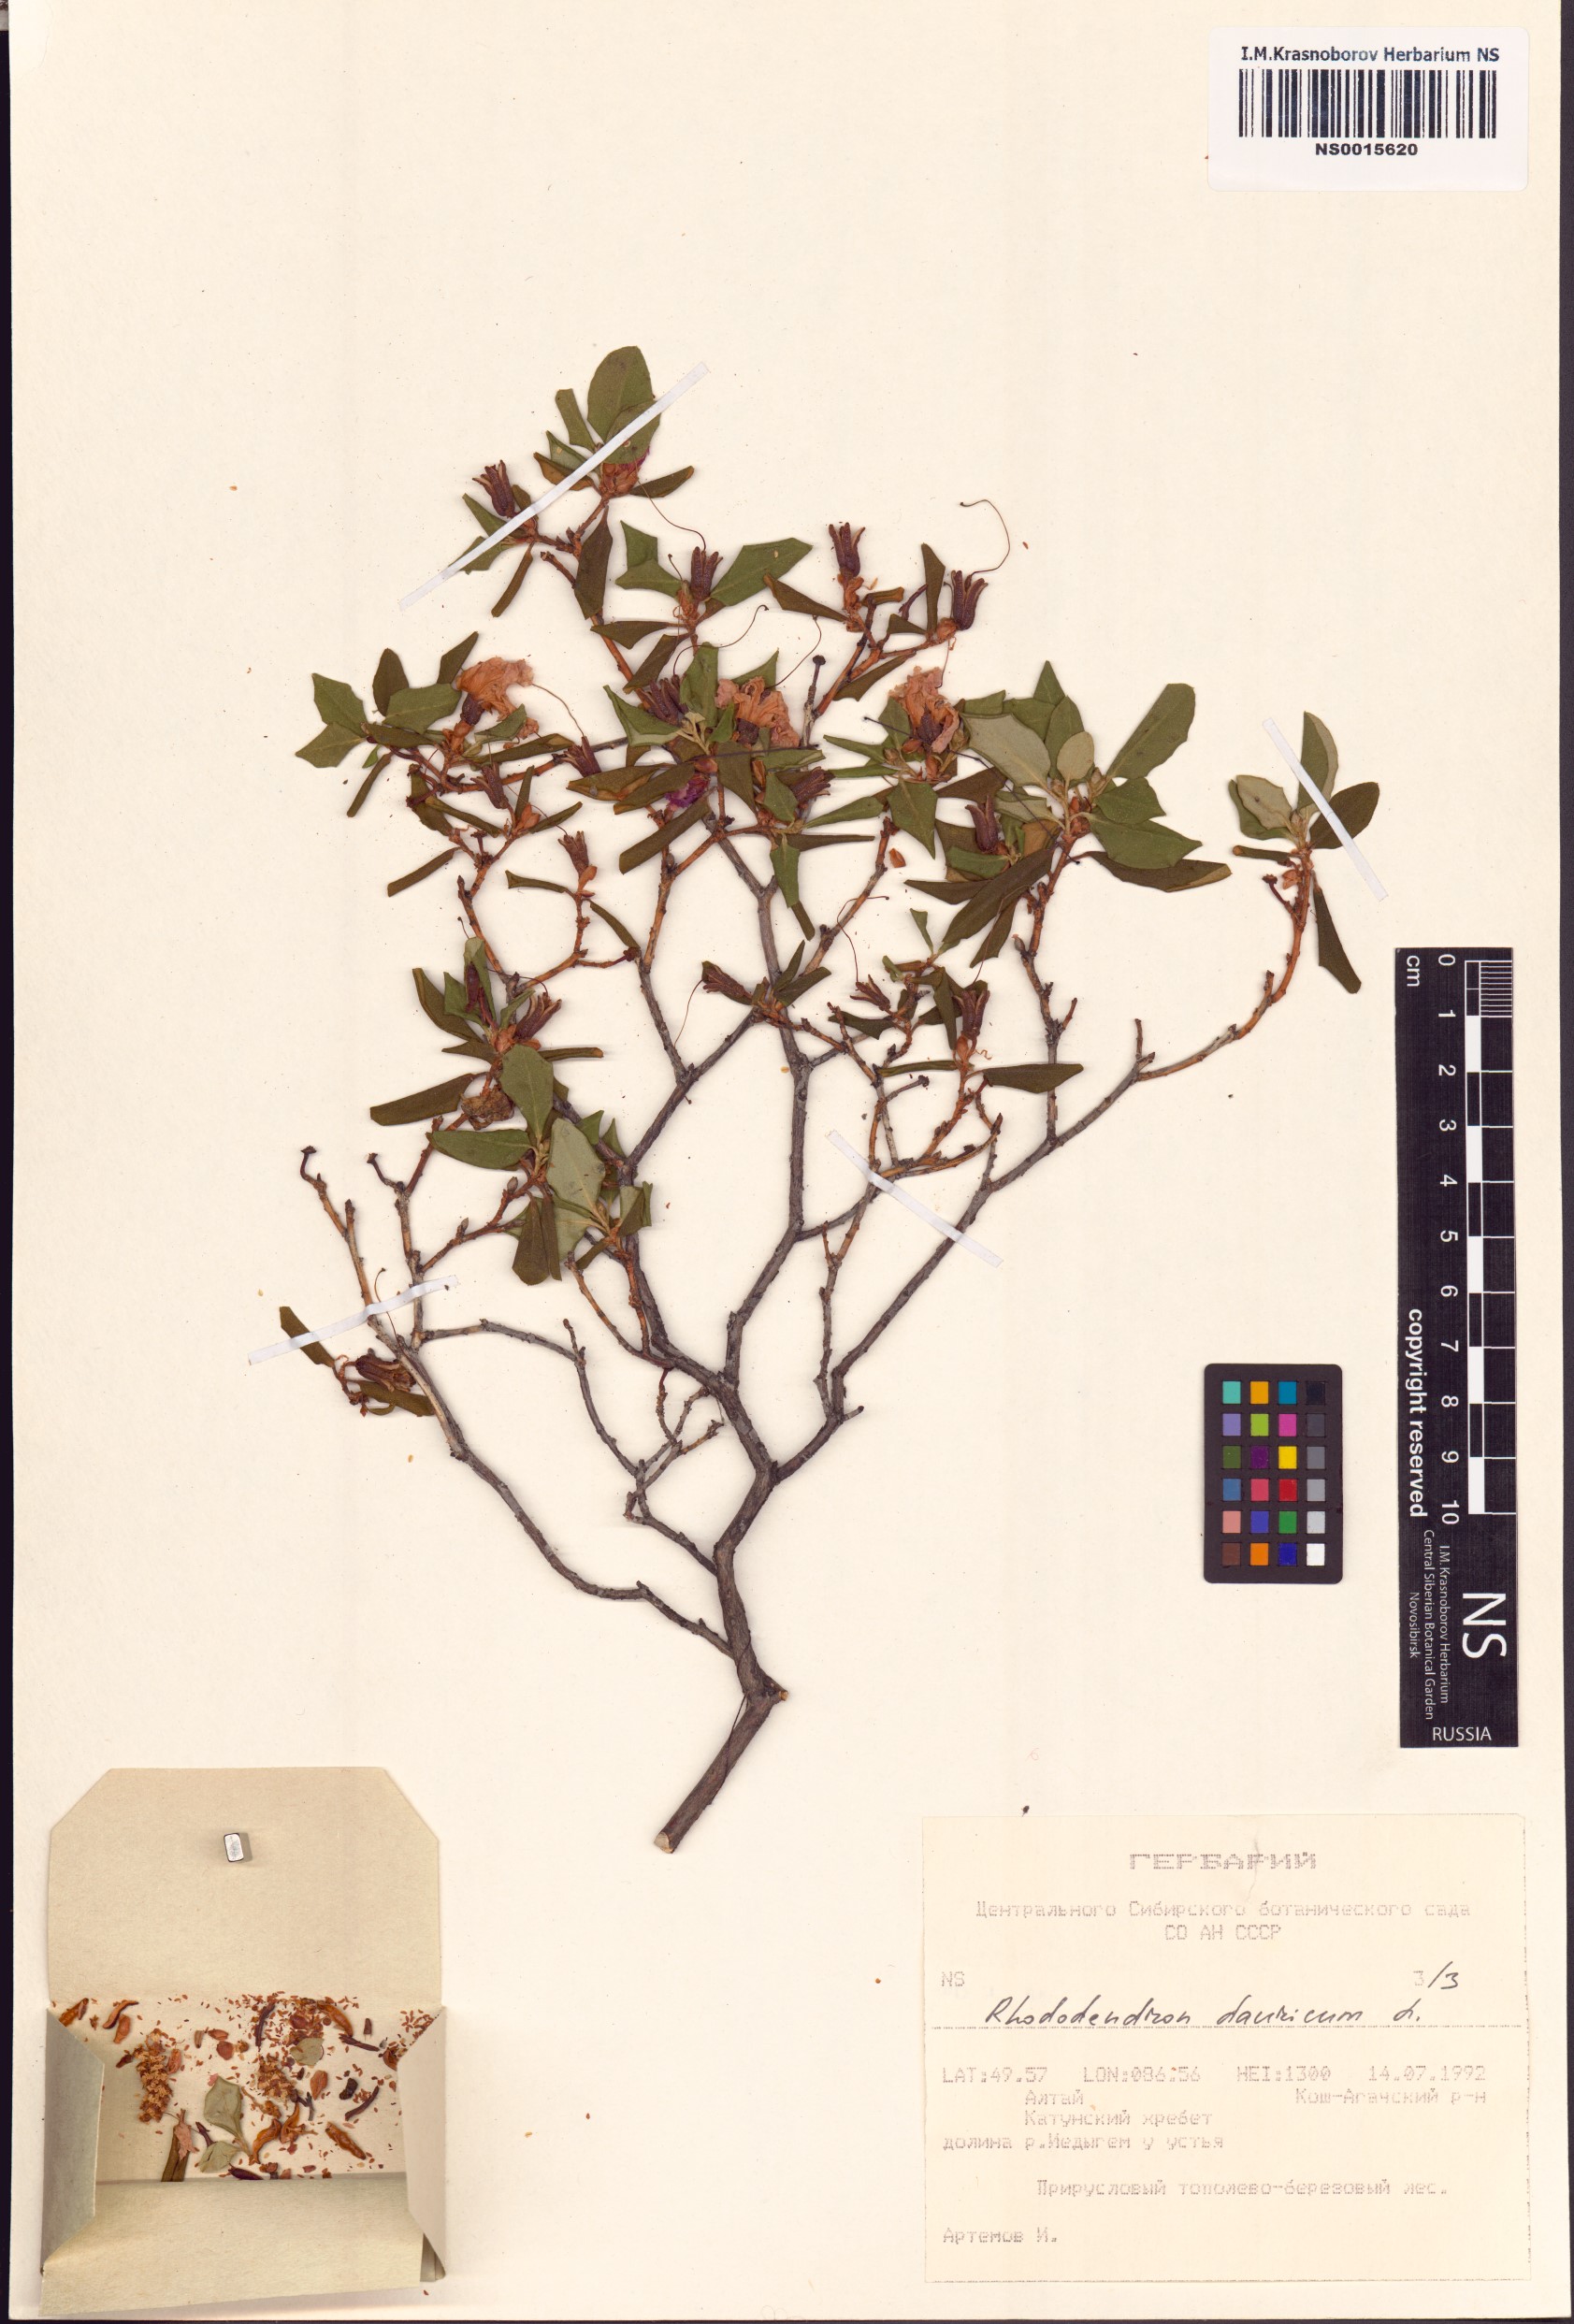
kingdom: Plantae
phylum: Tracheophyta
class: Magnoliopsida
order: Ericales
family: Ericaceae
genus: Rhododendron
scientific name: Rhododendron dauricum
